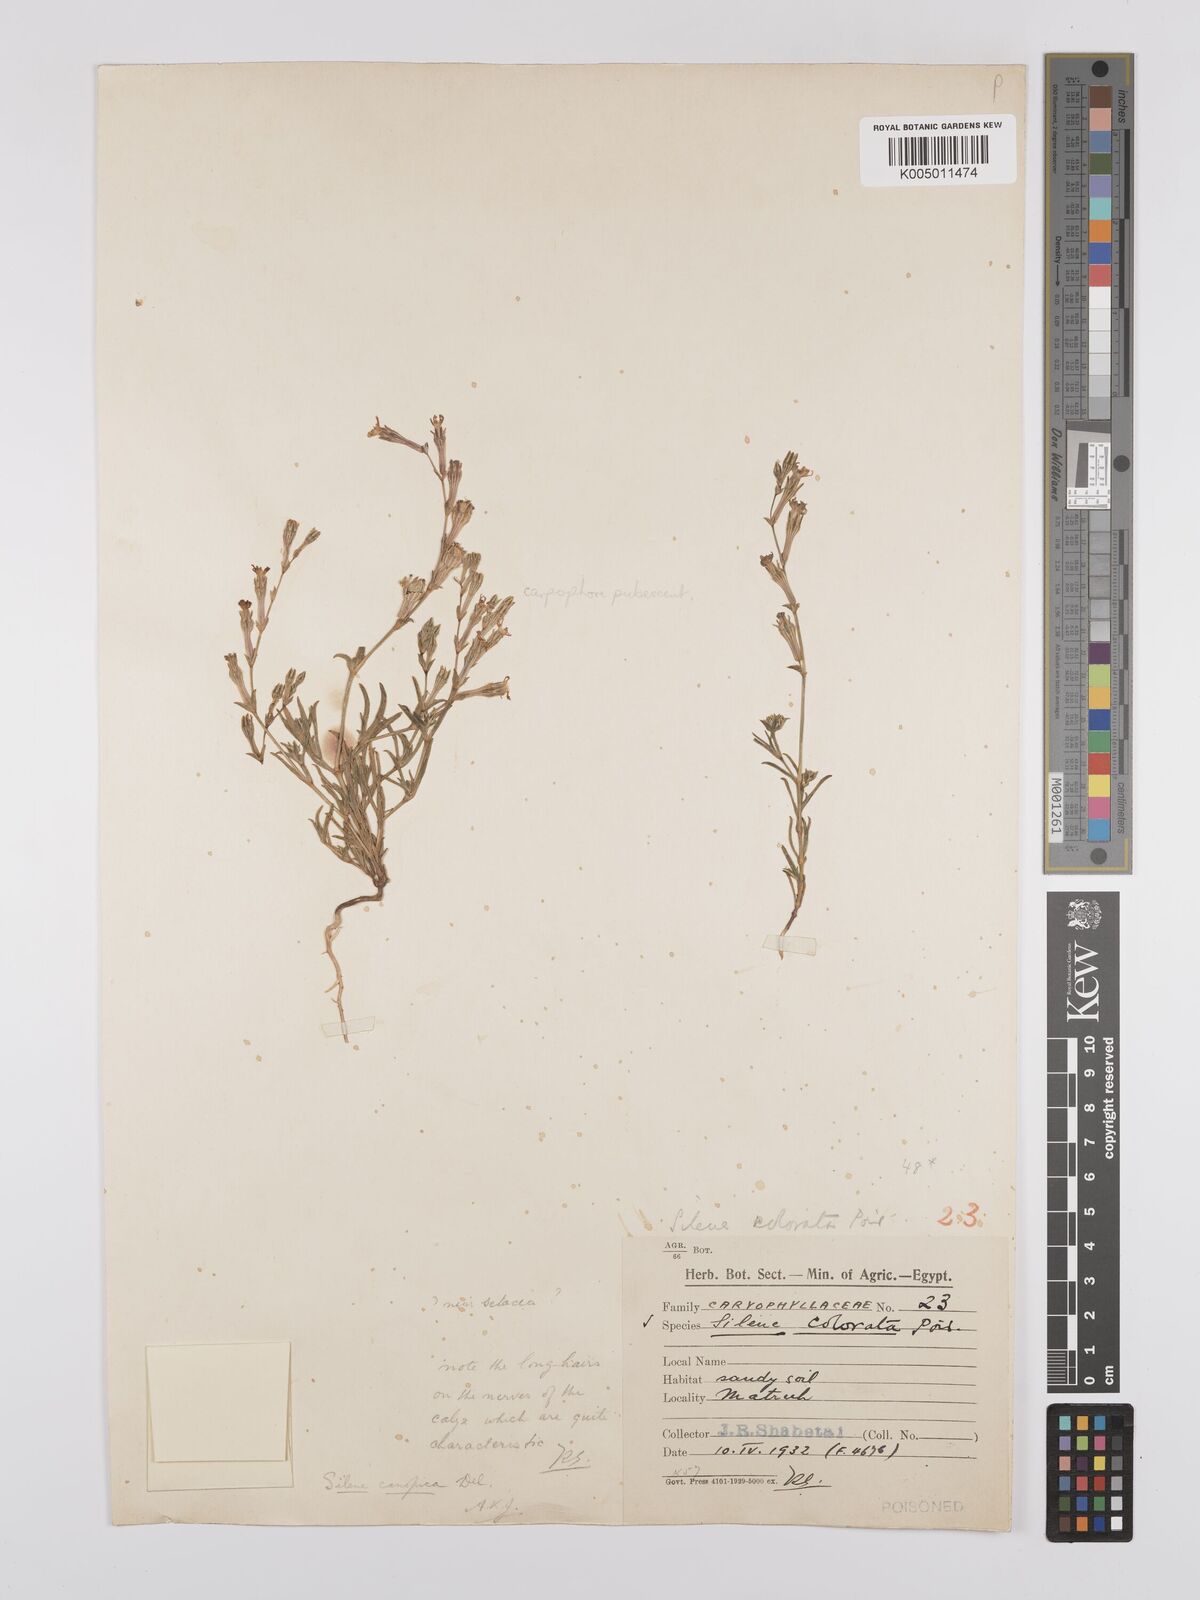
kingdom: Plantae
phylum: Tracheophyta
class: Magnoliopsida
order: Caryophyllales
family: Caryophyllaceae
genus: Silene
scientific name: Silene biappendiculata
